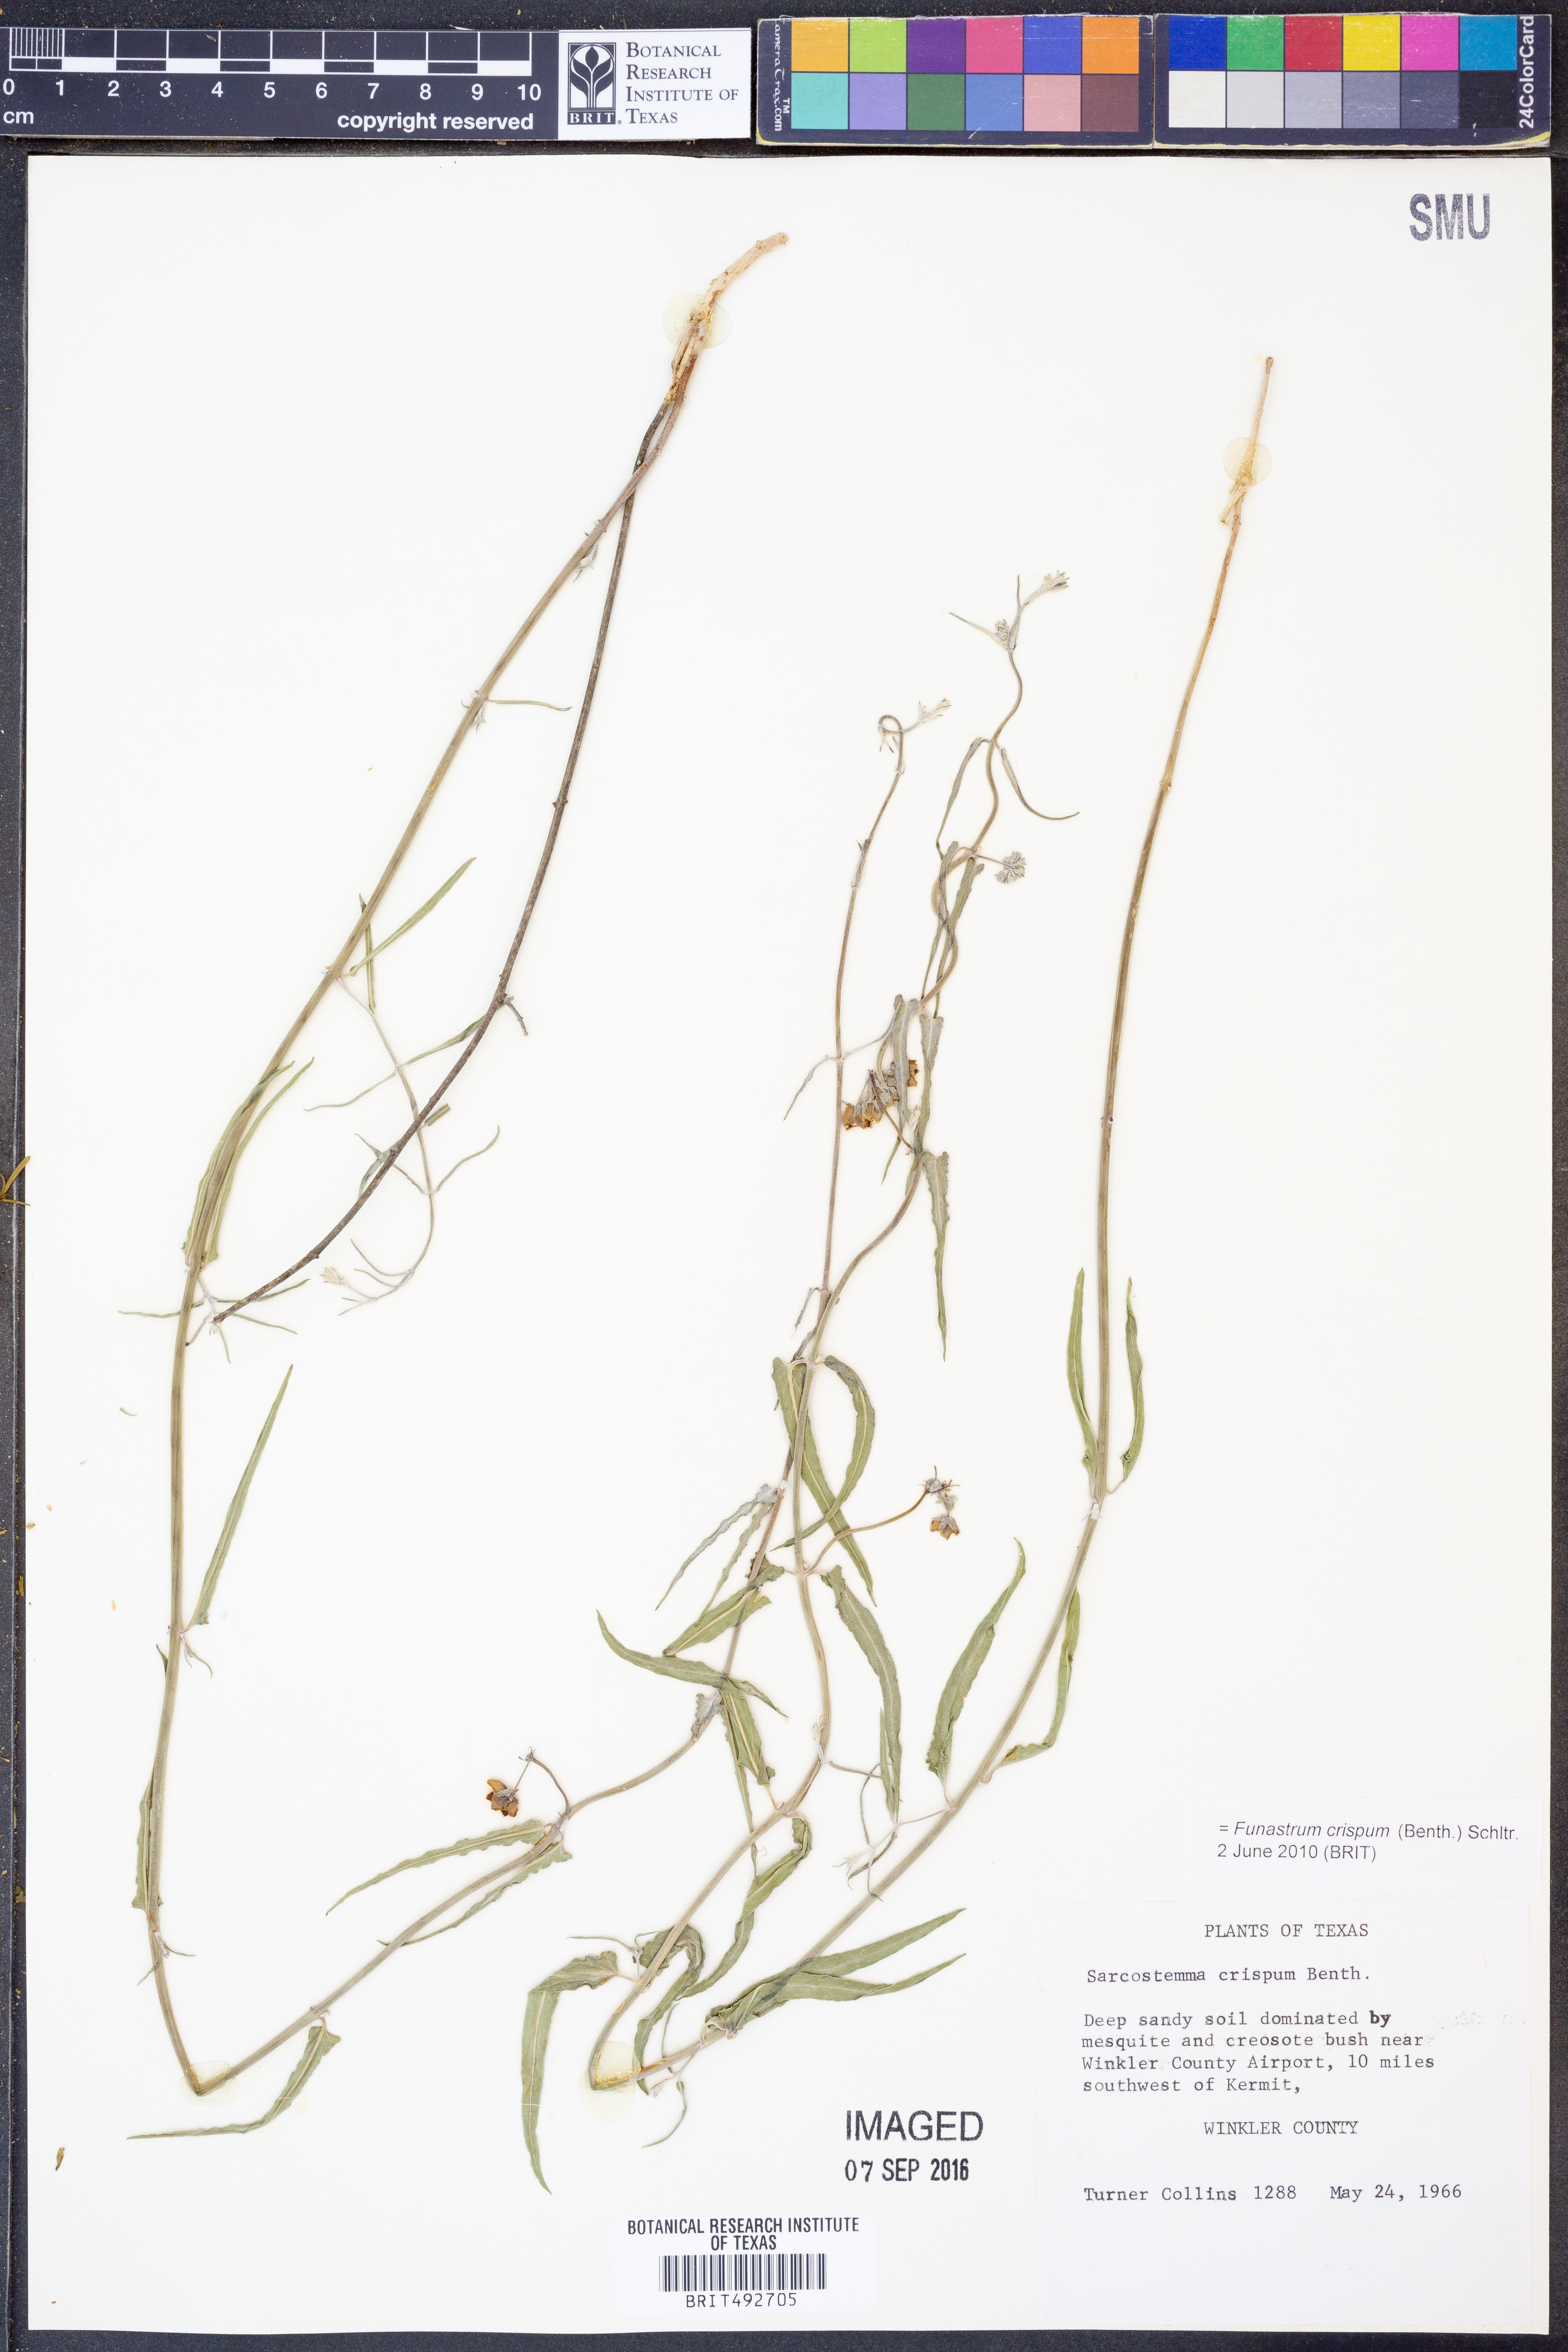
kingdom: Plantae
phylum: Tracheophyta
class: Magnoliopsida
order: Gentianales
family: Apocynaceae
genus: Funastrum
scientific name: Funastrum crispum
